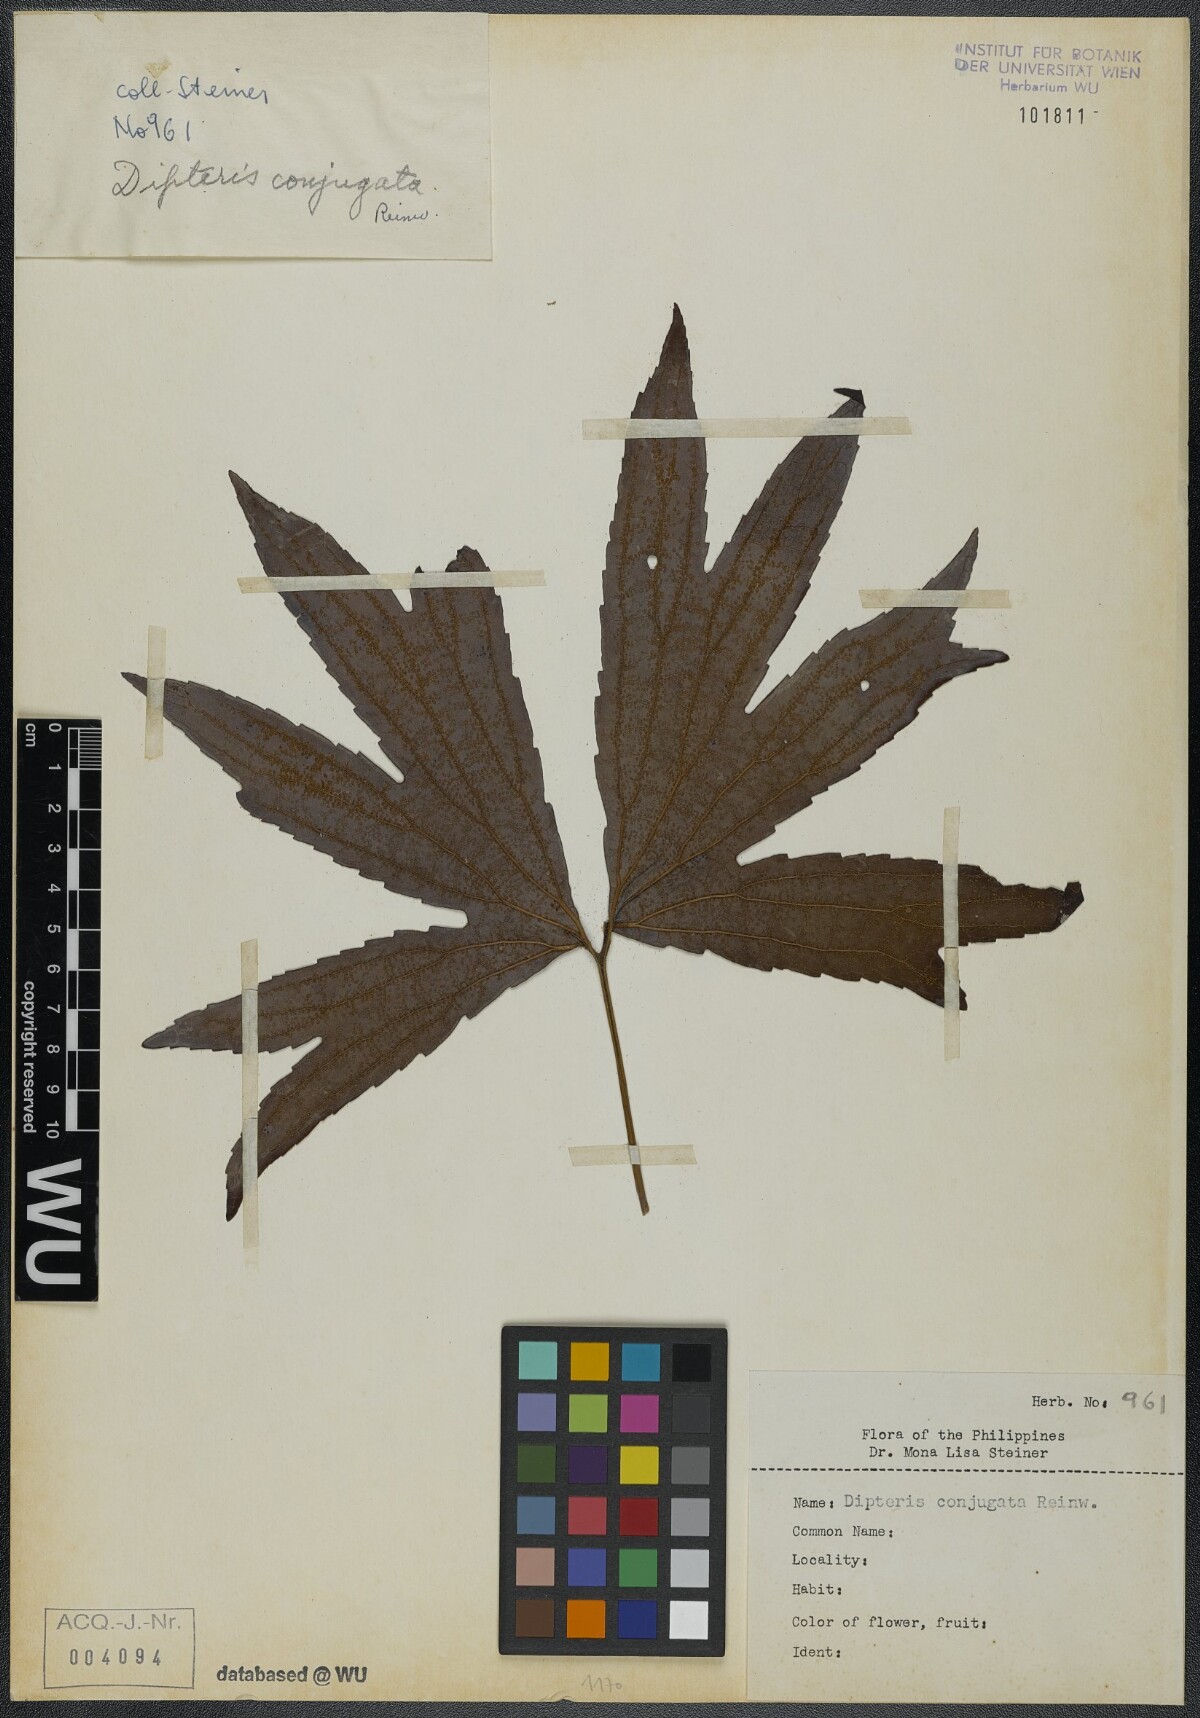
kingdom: Plantae
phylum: Tracheophyta
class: Polypodiopsida
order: Gleicheniales
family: Dipteridaceae
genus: Dipteris
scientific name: Dipteris conjugata
